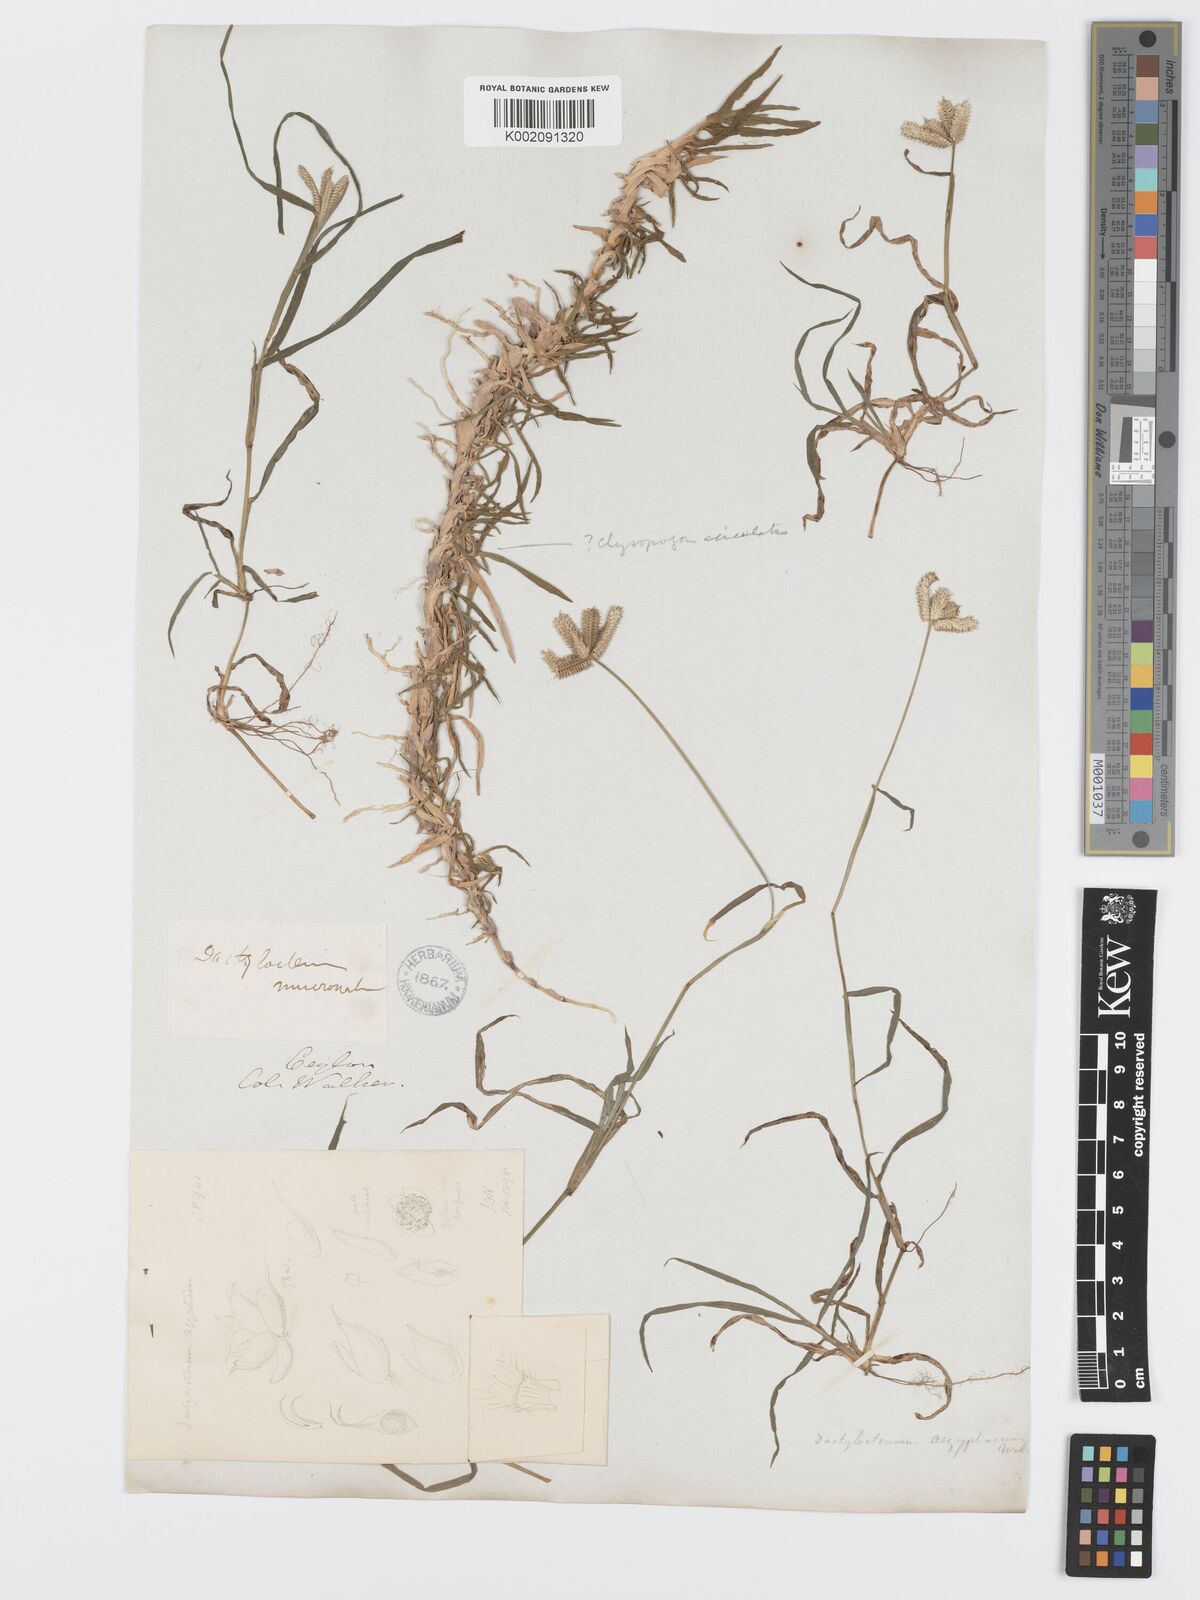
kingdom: Plantae
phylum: Tracheophyta
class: Liliopsida
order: Poales
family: Poaceae
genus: Dactyloctenium
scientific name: Dactyloctenium aegyptium
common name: Egyptian grass
